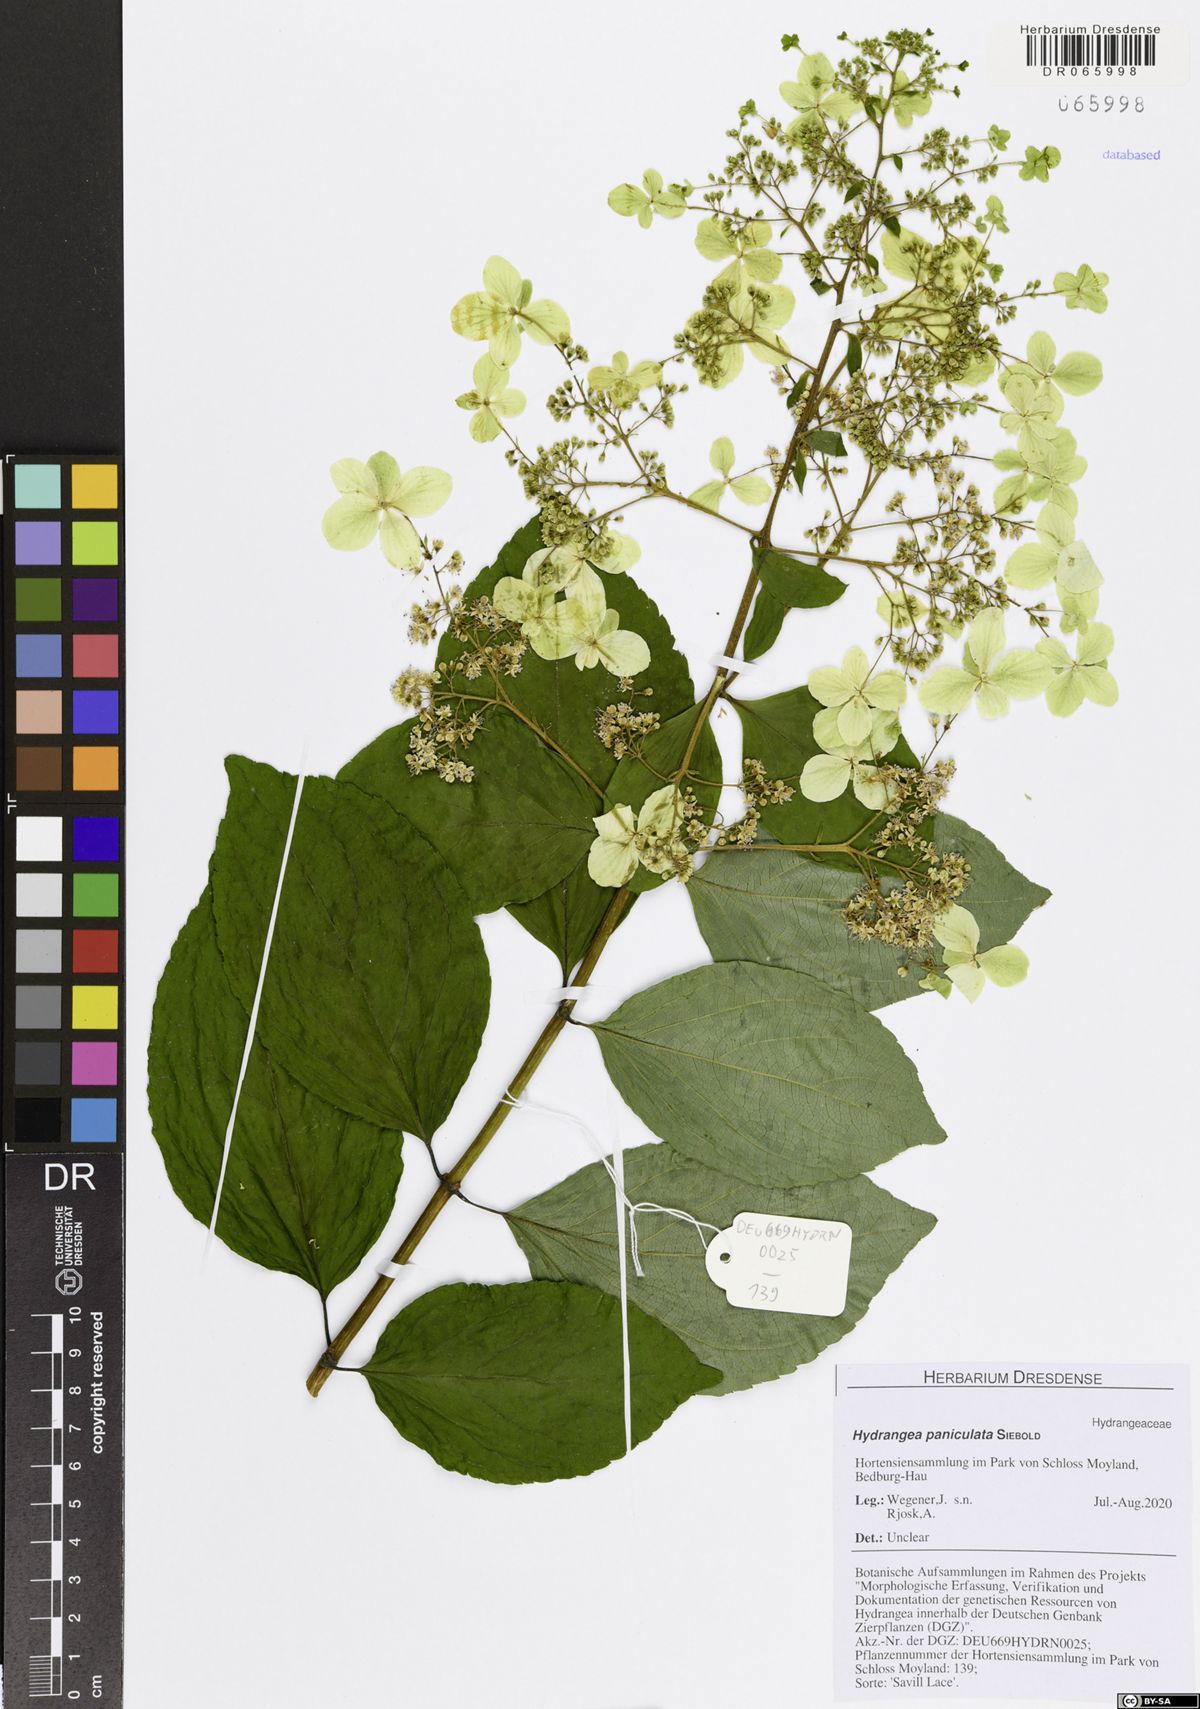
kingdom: Plantae
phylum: Tracheophyta
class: Magnoliopsida
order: Cornales
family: Hydrangeaceae
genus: Hydrangea
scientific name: Hydrangea paniculata
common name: Panicled hydrangea
